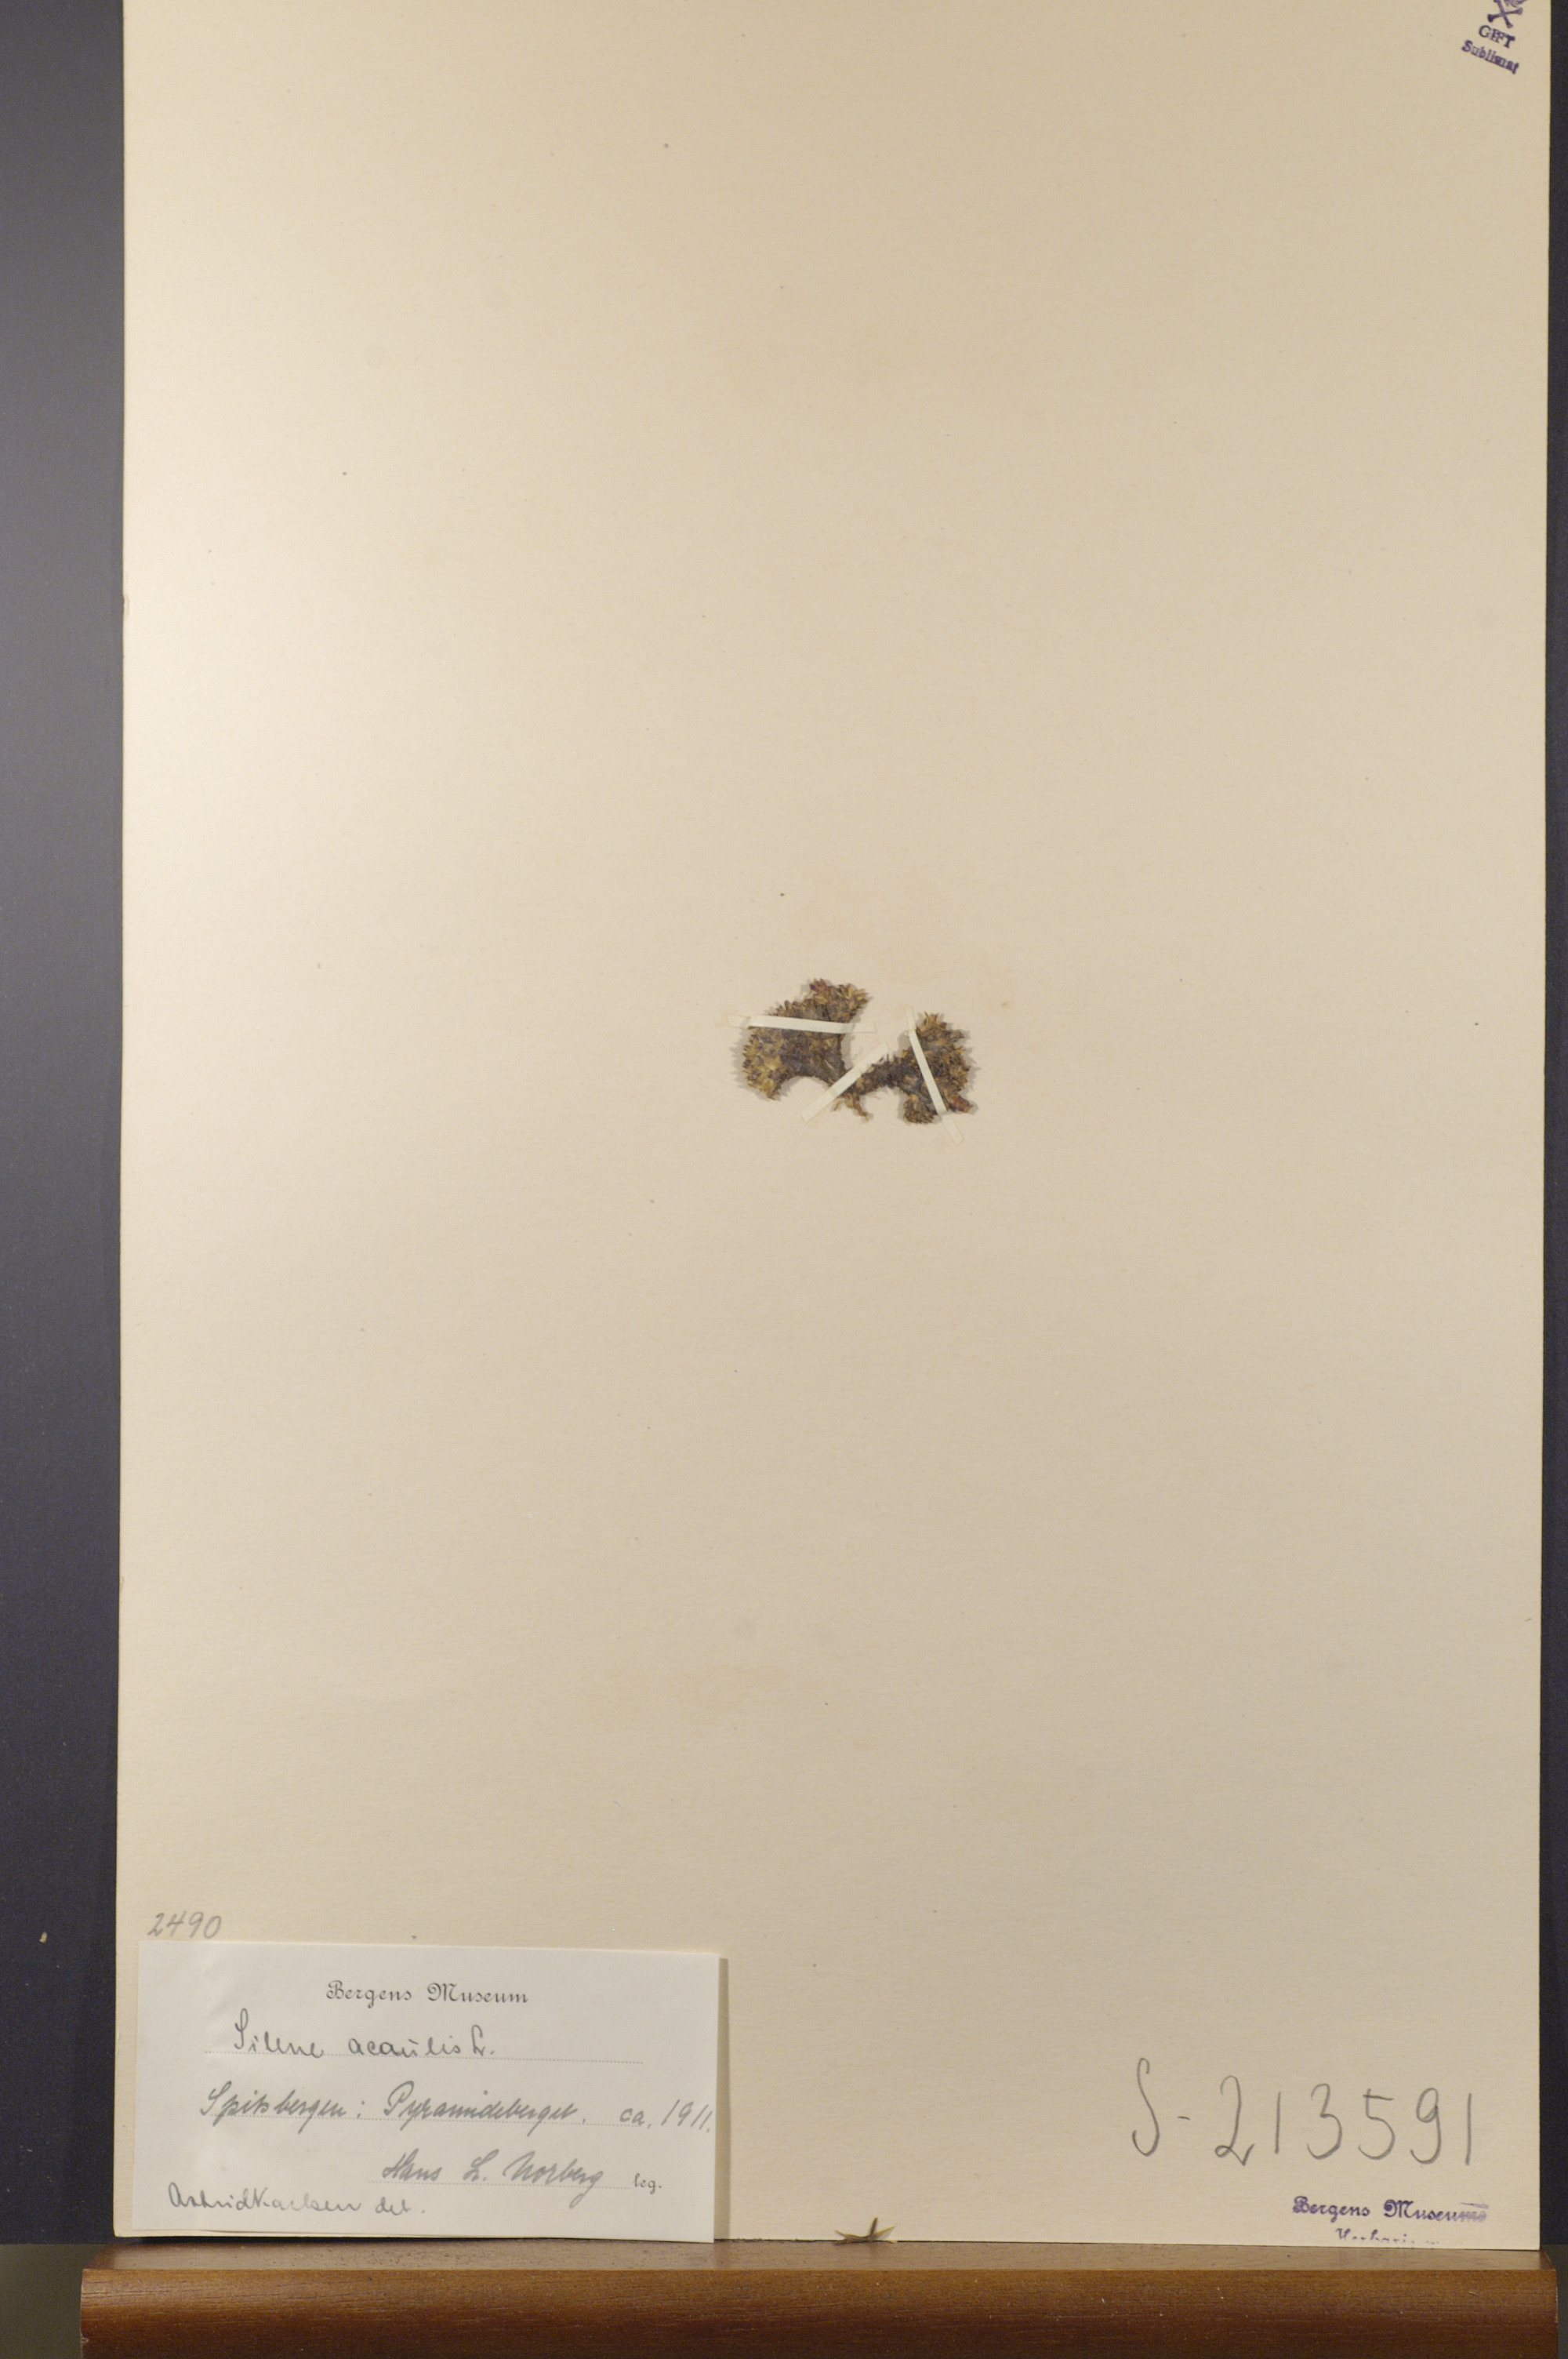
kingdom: Plantae
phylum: Tracheophyta
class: Magnoliopsida
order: Caryophyllales
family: Caryophyllaceae
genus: Silene
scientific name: Silene acaulis
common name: Moss campion
